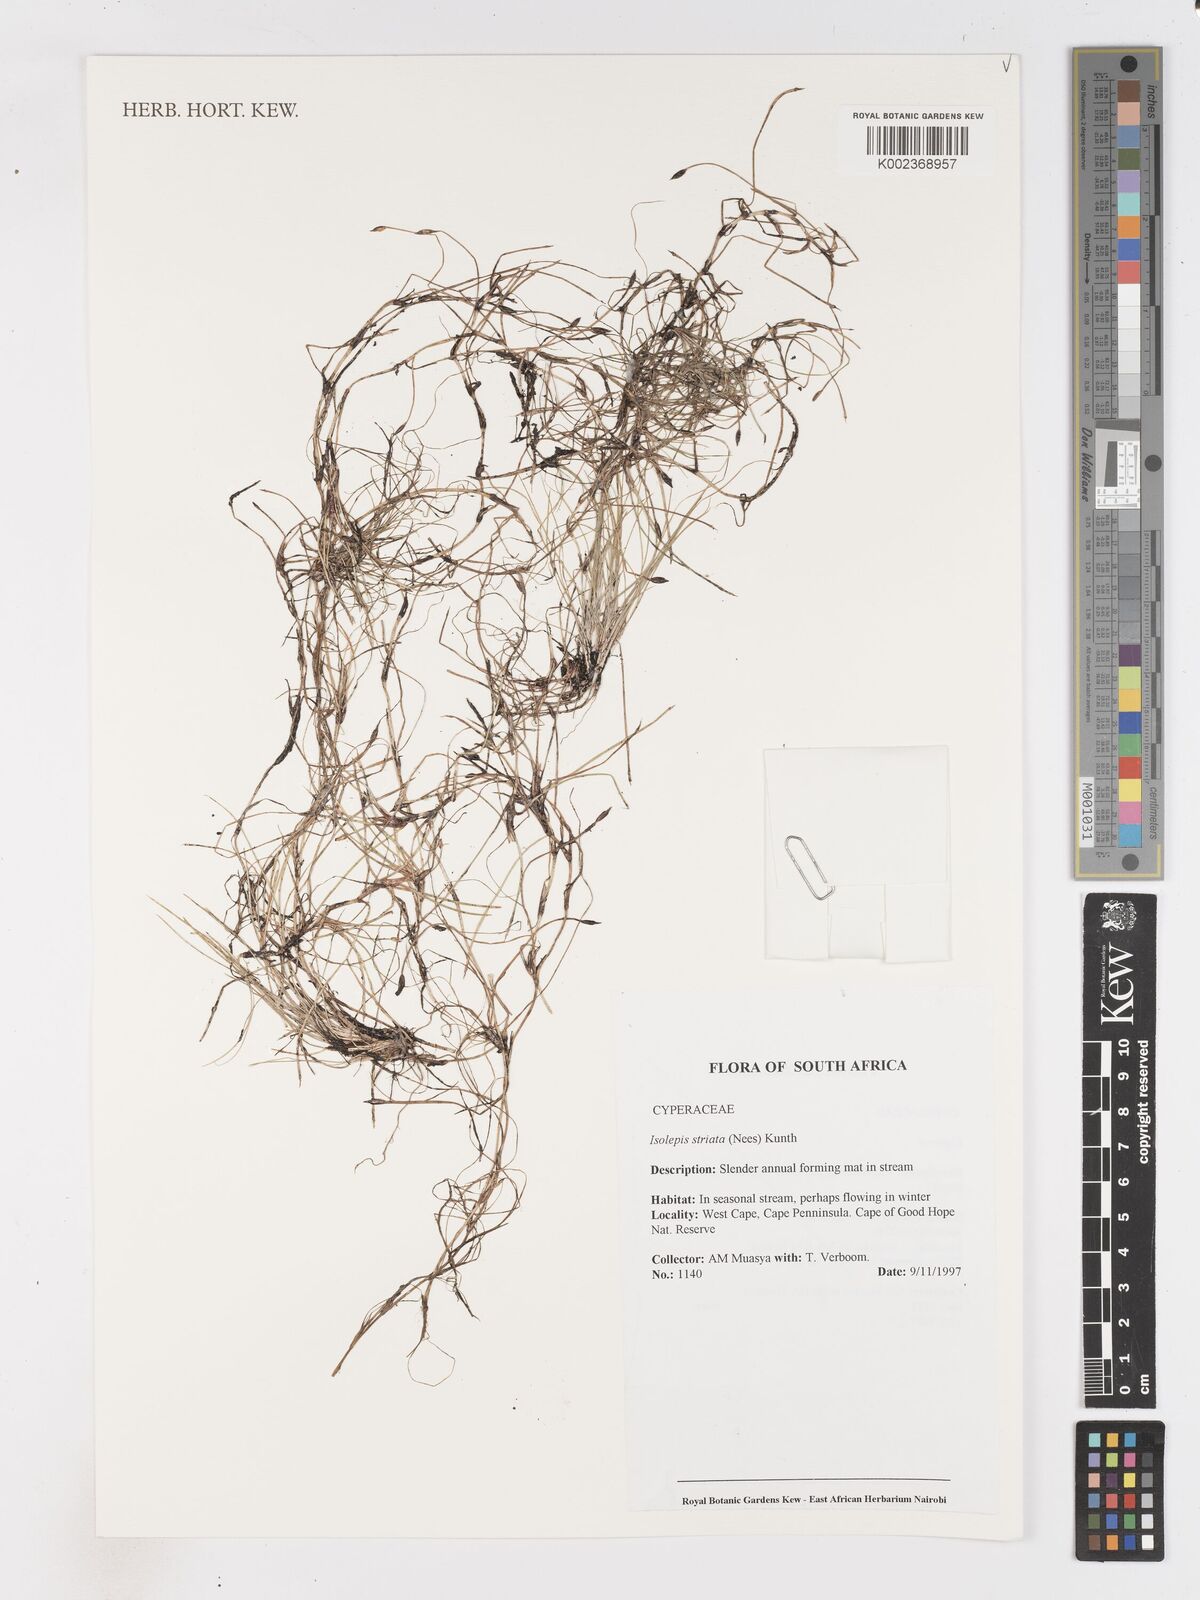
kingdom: Plantae
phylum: Tracheophyta
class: Liliopsida
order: Poales
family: Cyperaceae
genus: Isolepis
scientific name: Isolepis striata
